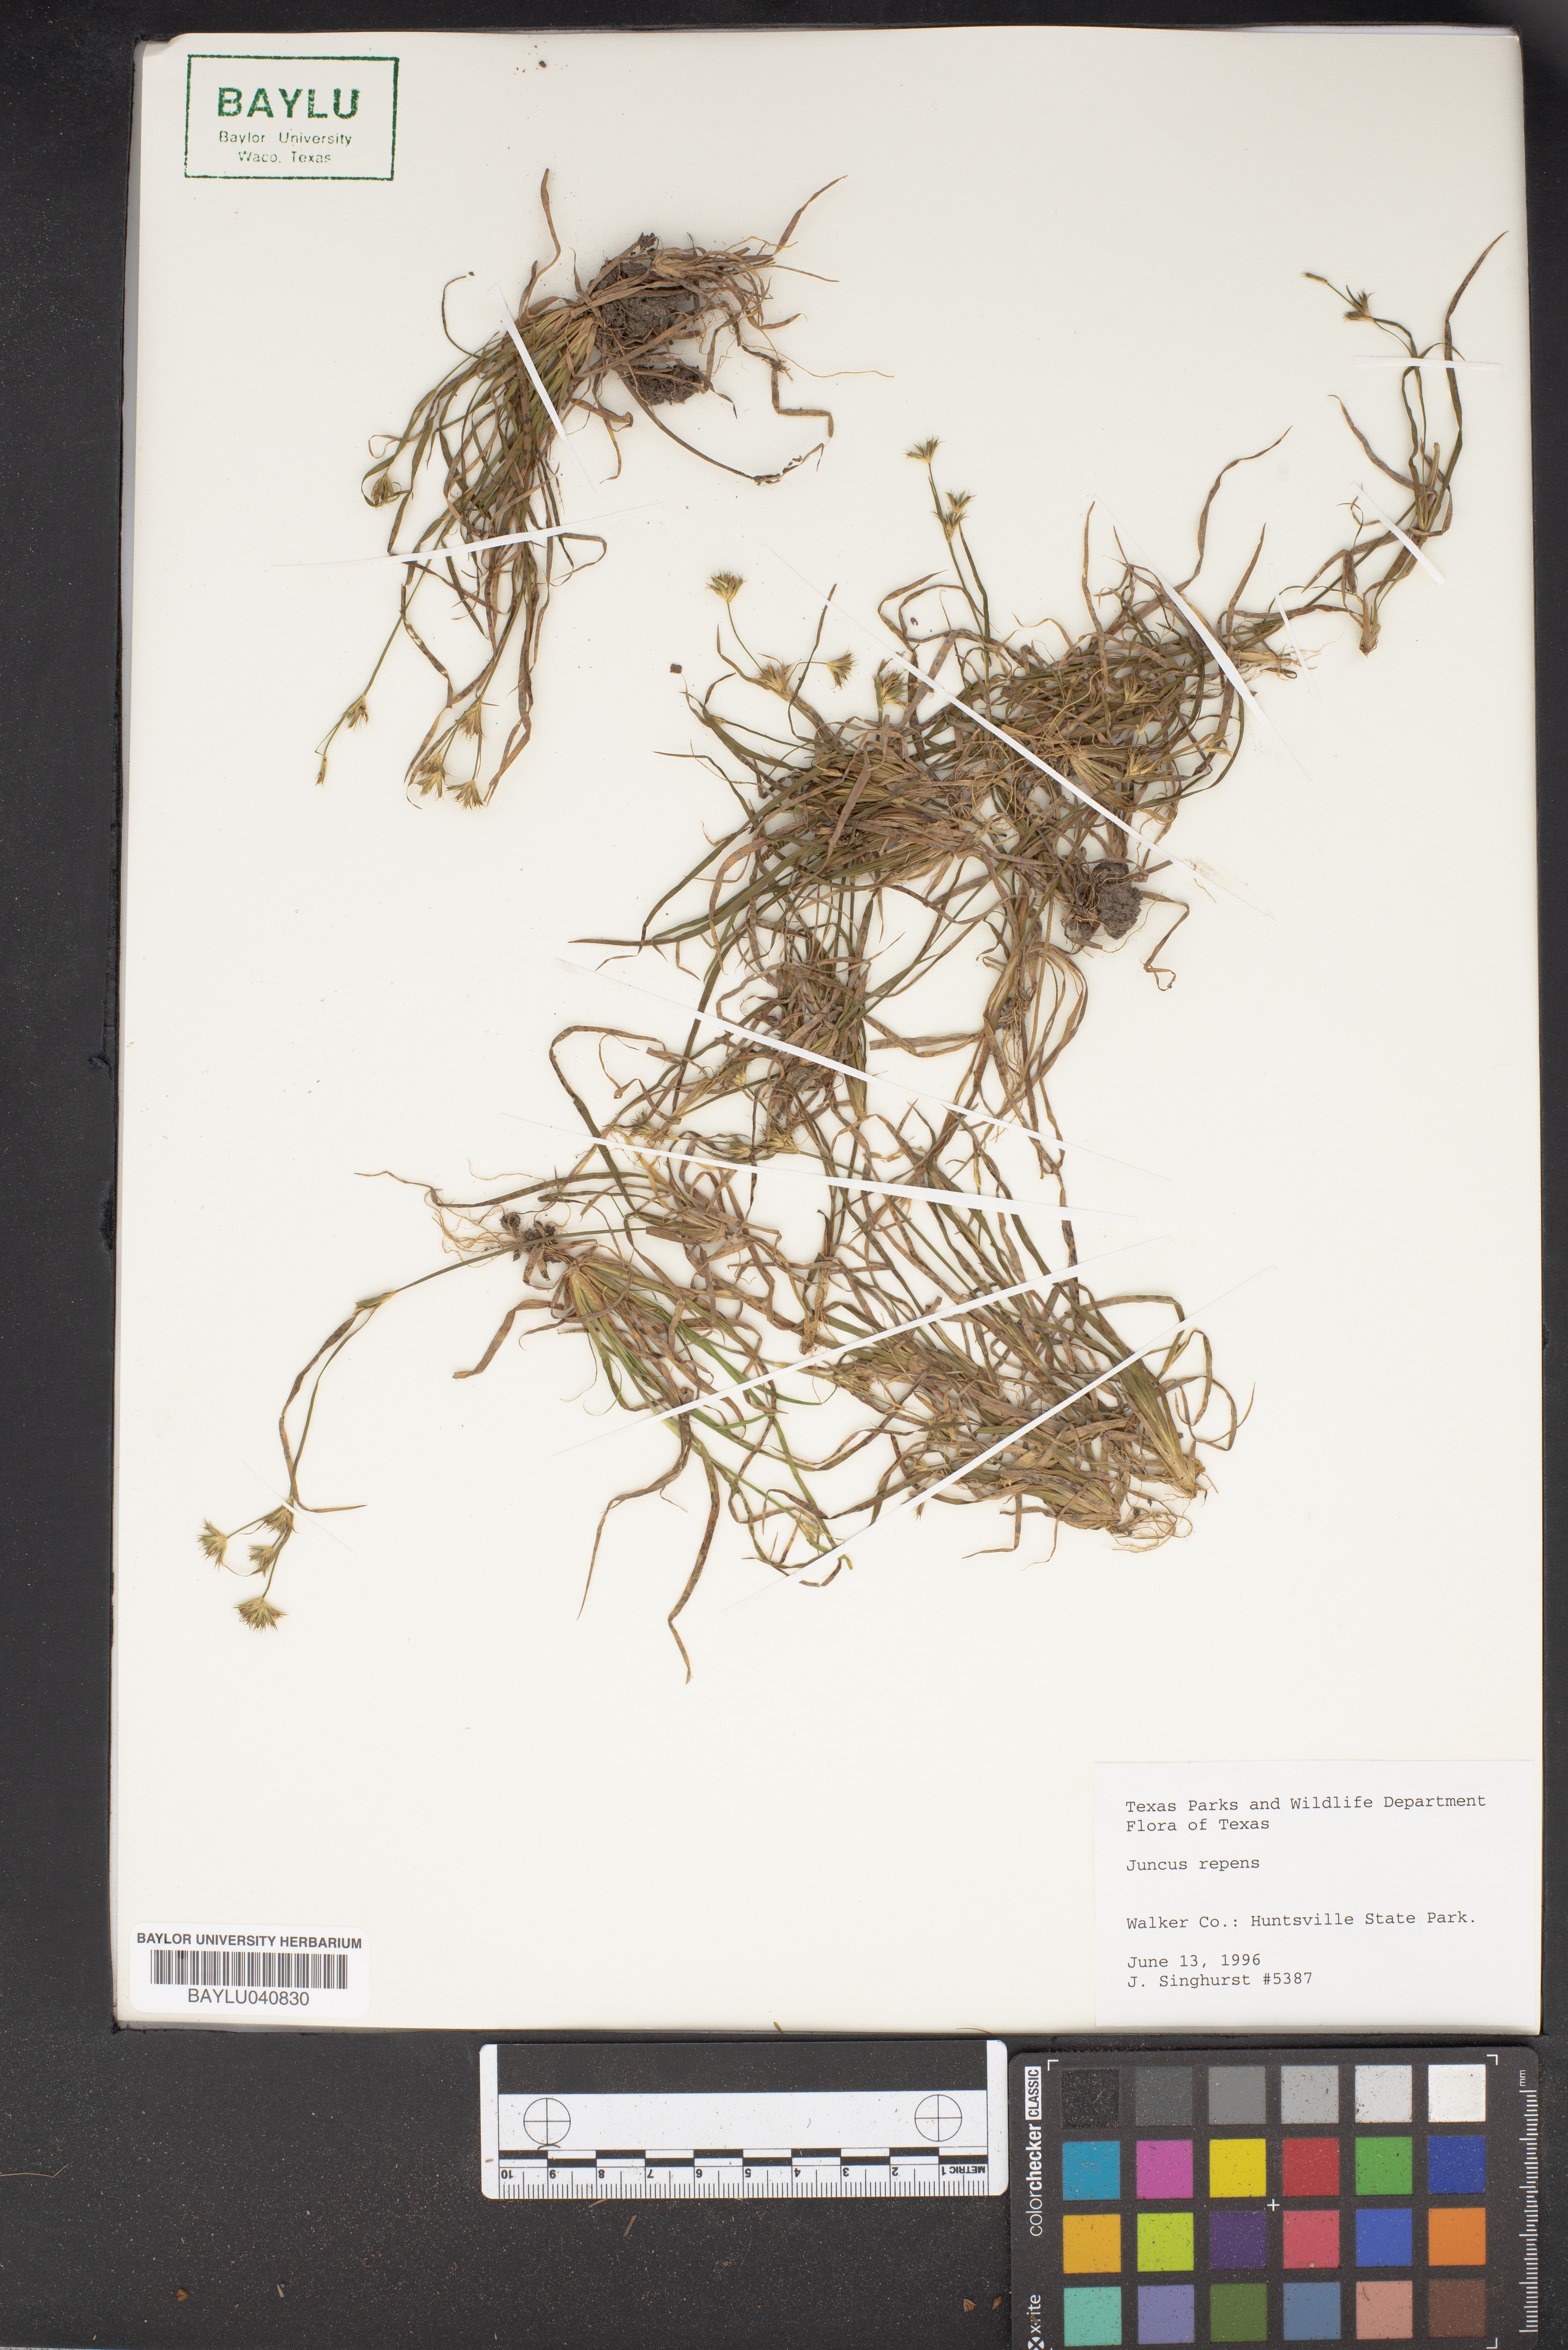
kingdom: Plantae
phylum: Tracheophyta
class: Liliopsida
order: Poales
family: Juncaceae
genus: Juncus
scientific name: Juncus repens
